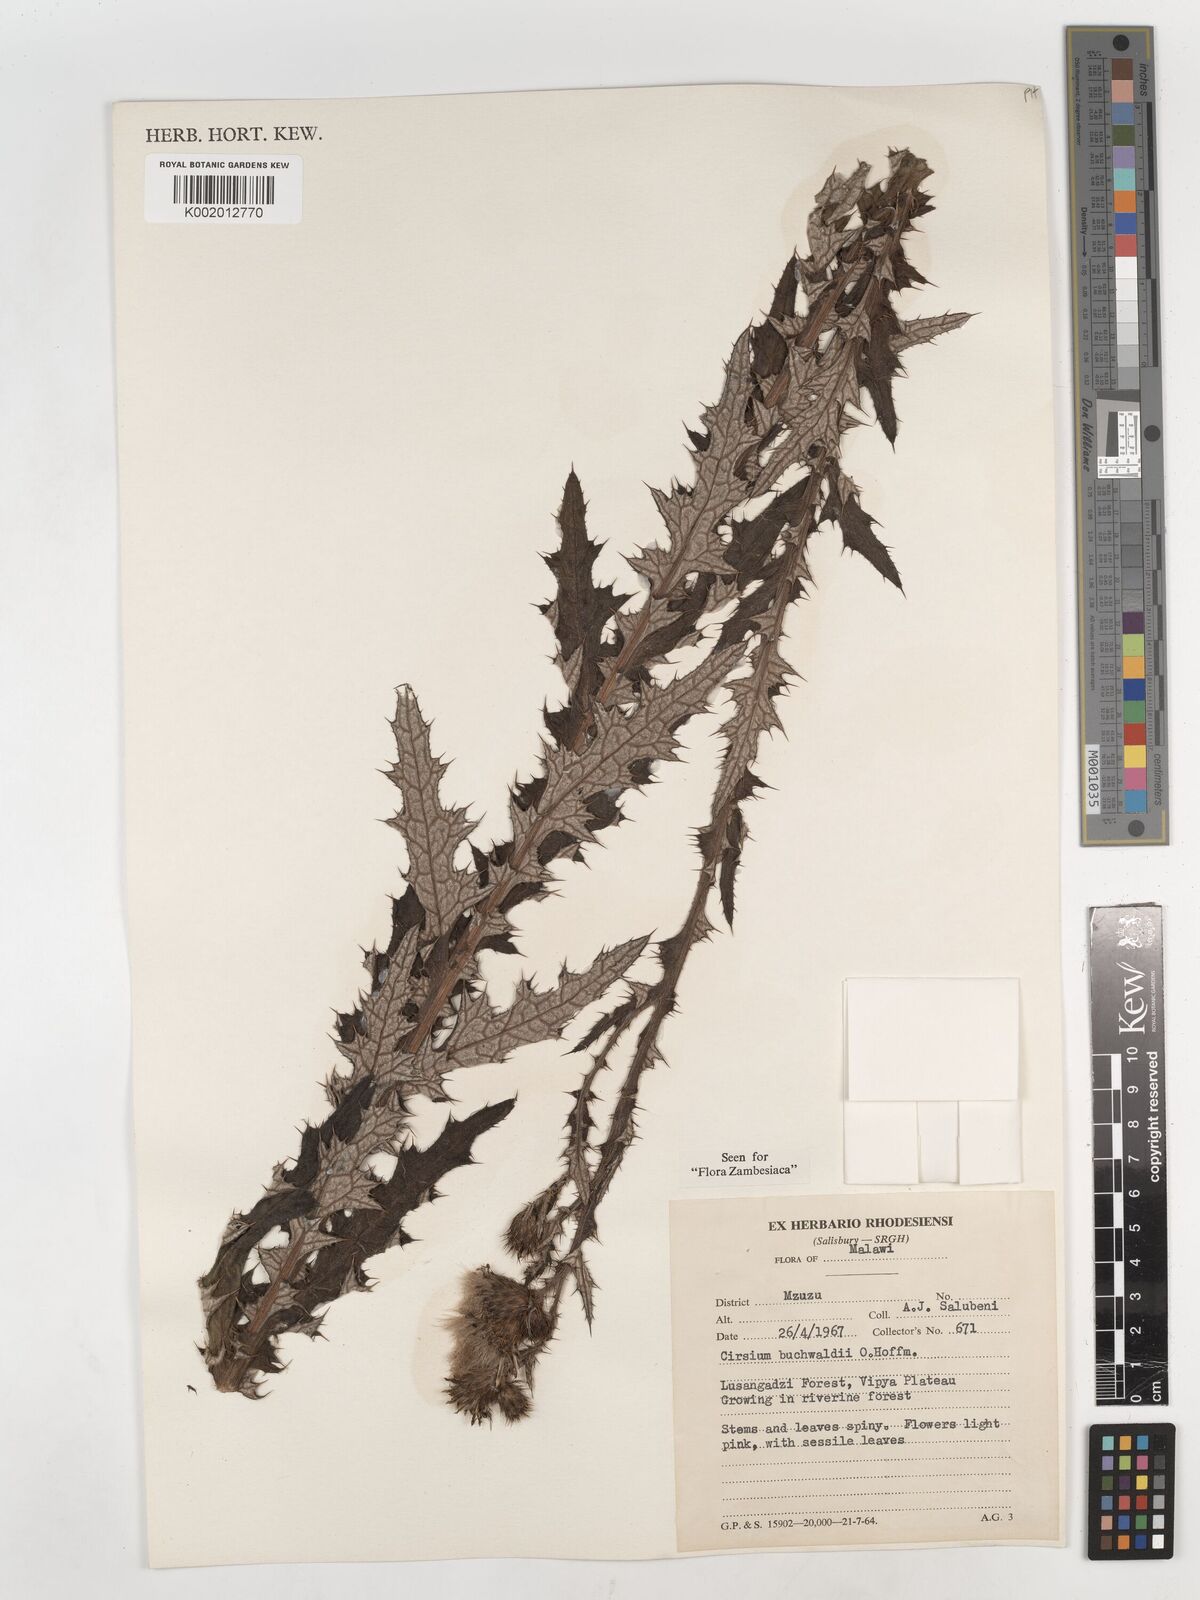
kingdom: Plantae
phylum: Tracheophyta
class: Magnoliopsida
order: Asterales
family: Asteraceae
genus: Cirsium
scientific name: Cirsium buchwaldii
